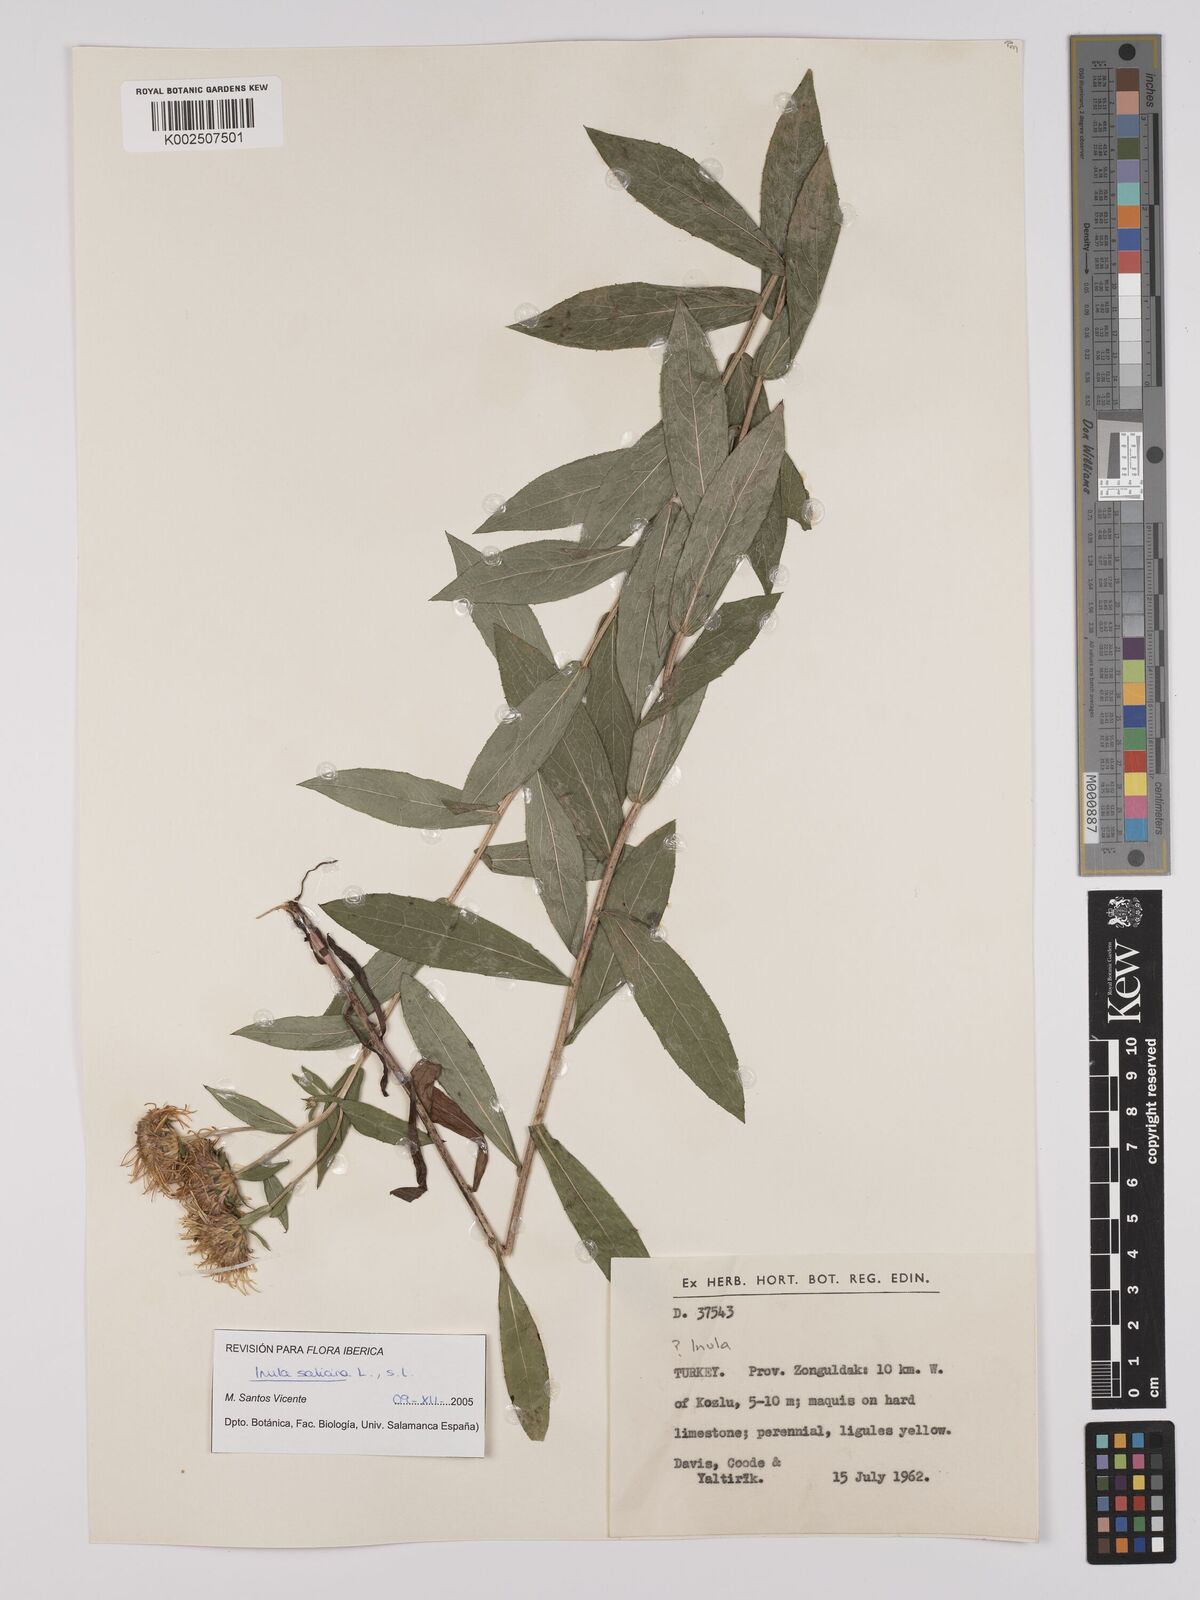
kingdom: Plantae
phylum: Tracheophyta
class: Magnoliopsida
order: Asterales
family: Asteraceae
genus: Pentanema
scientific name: Pentanema salicinum
